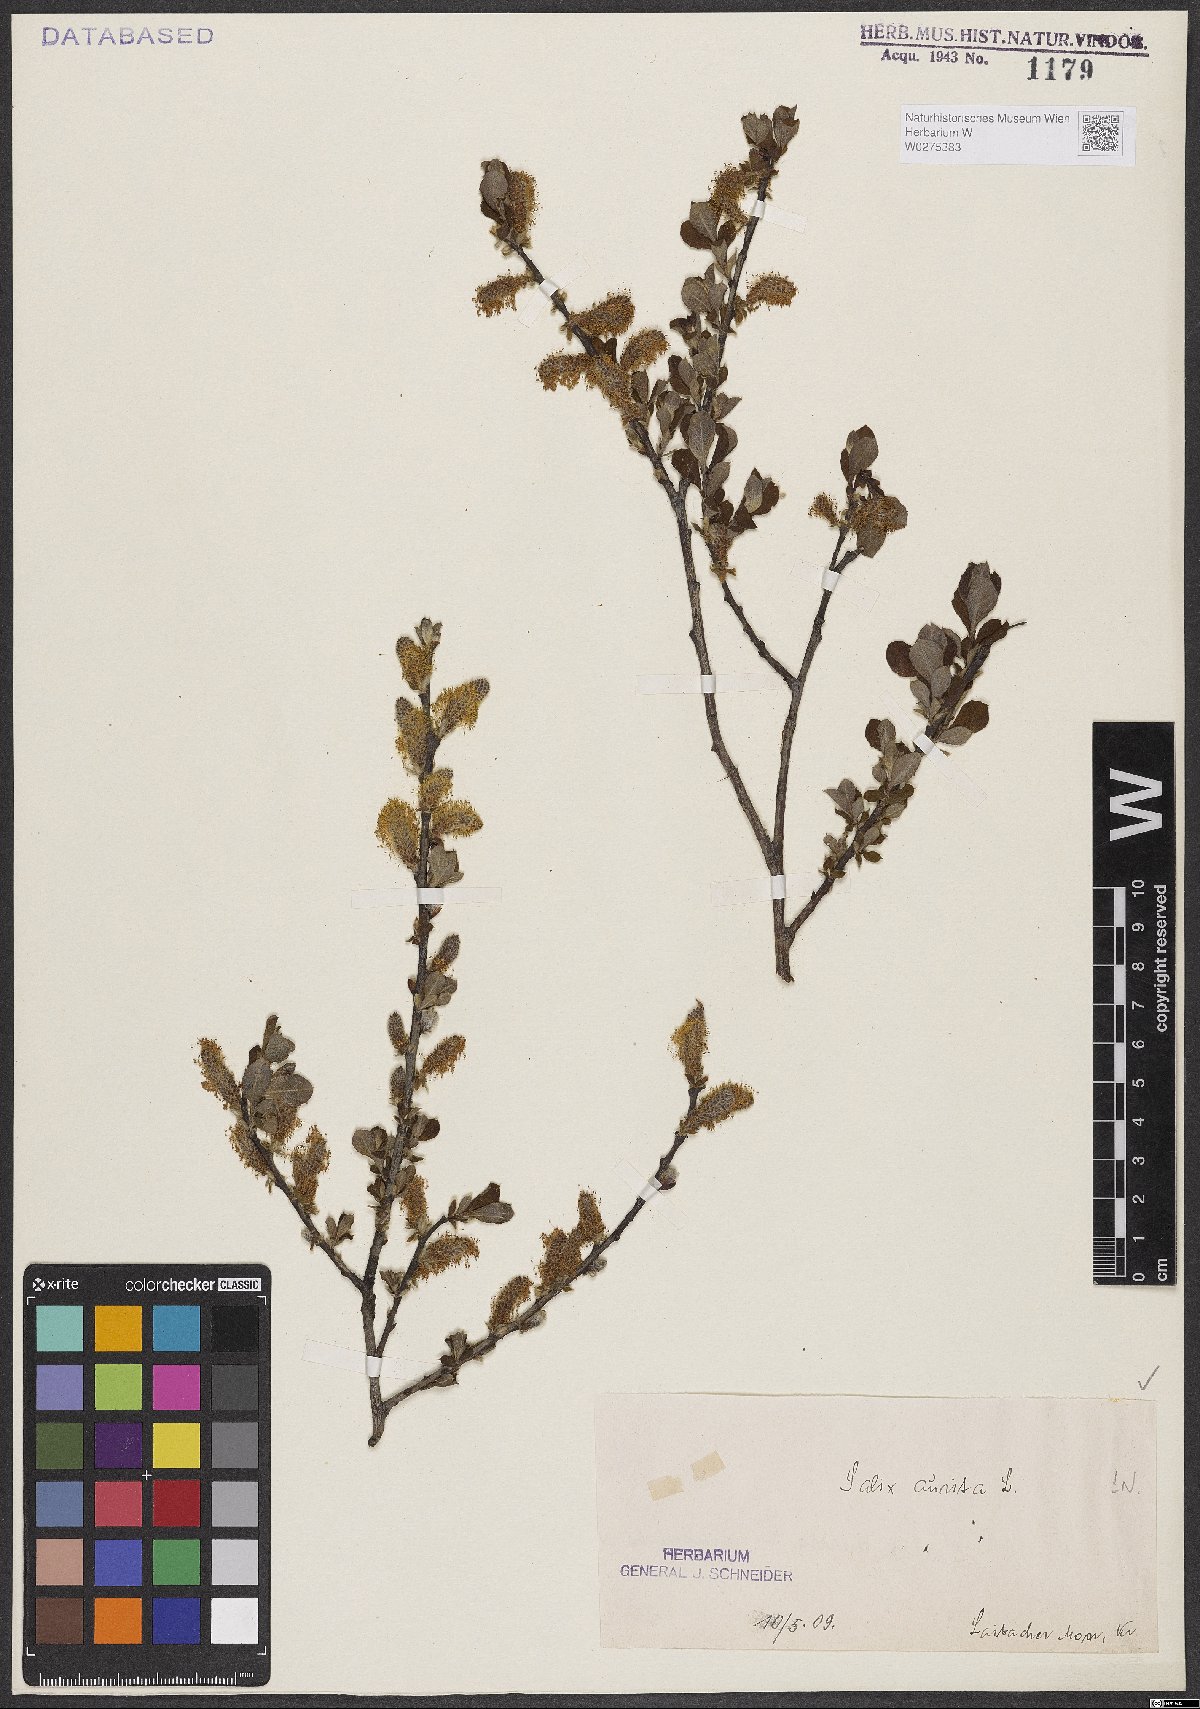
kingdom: Plantae
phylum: Tracheophyta
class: Magnoliopsida
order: Malpighiales
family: Salicaceae
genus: Salix
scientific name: Salix aurita
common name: Eared willow
